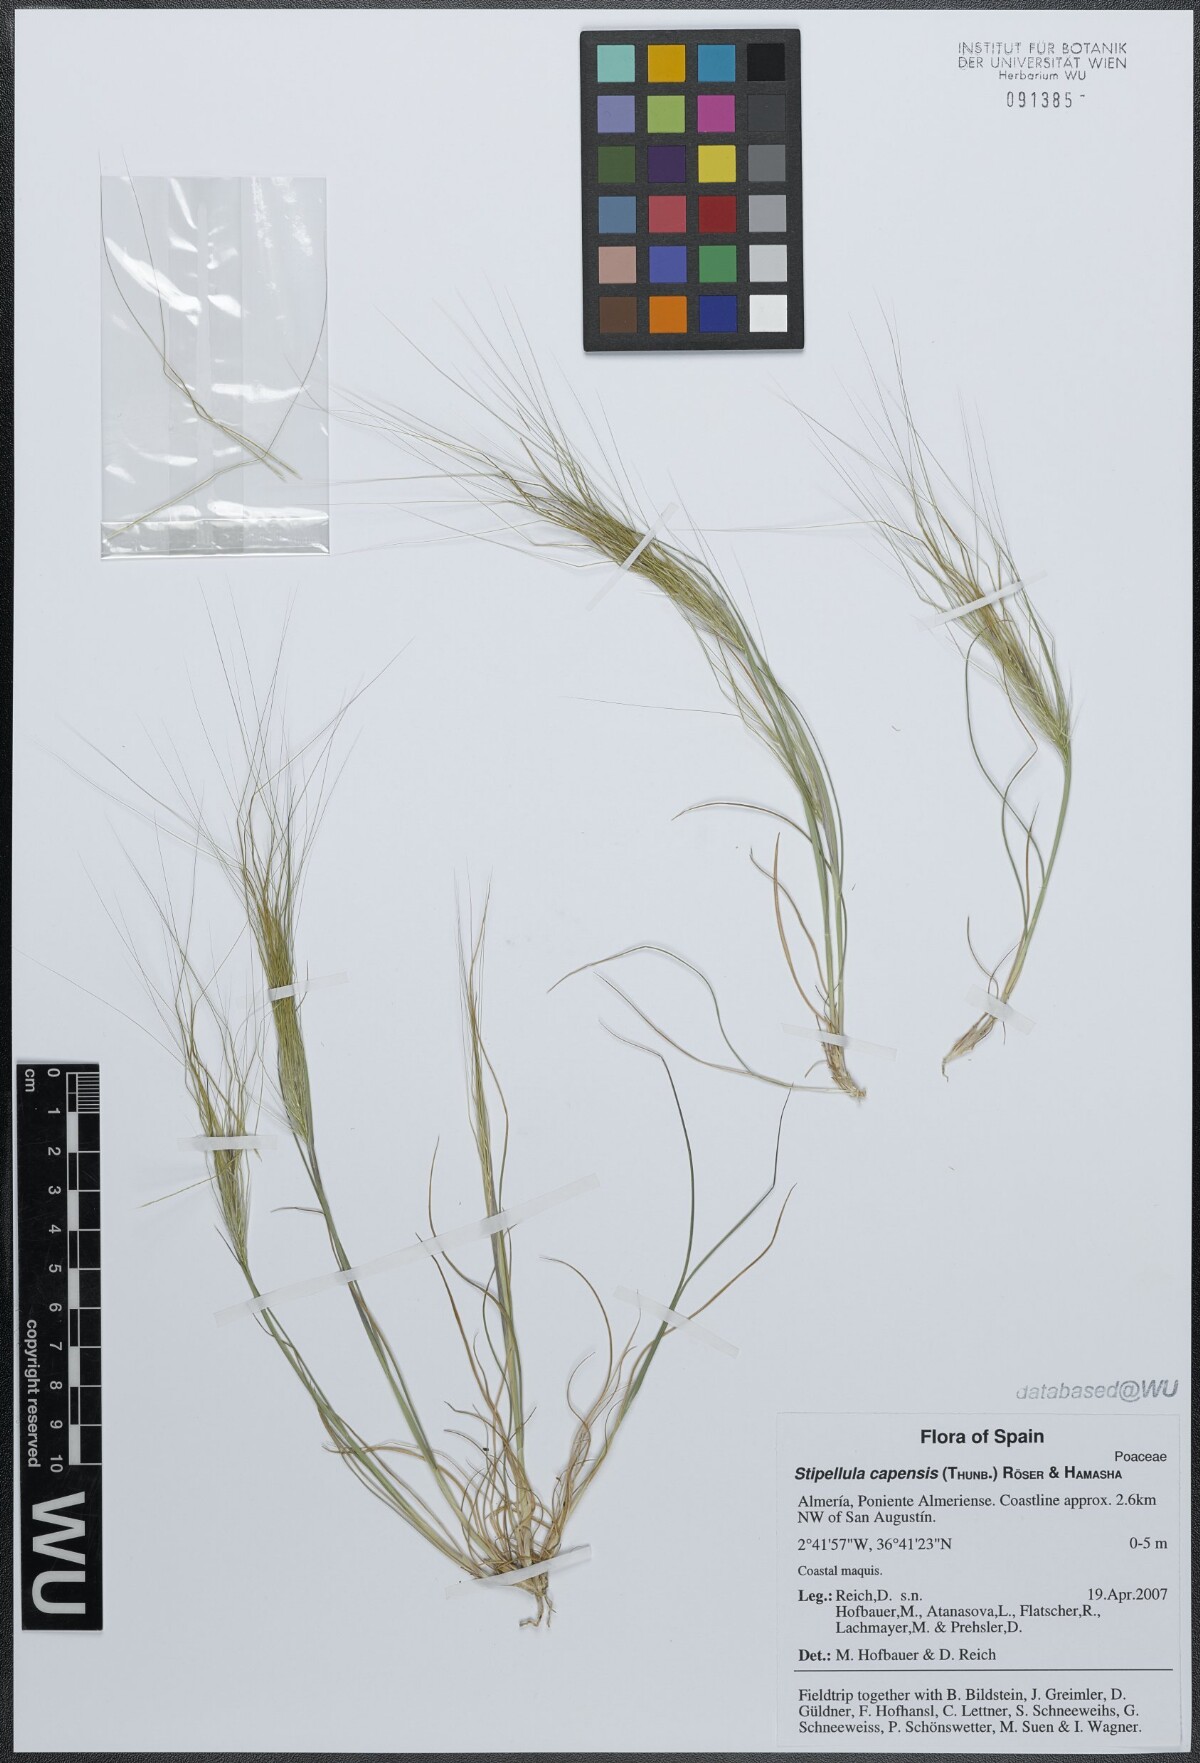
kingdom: Plantae
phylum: Tracheophyta
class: Liliopsida
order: Poales
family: Poaceae
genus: Stipellula
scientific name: Stipellula capensis
